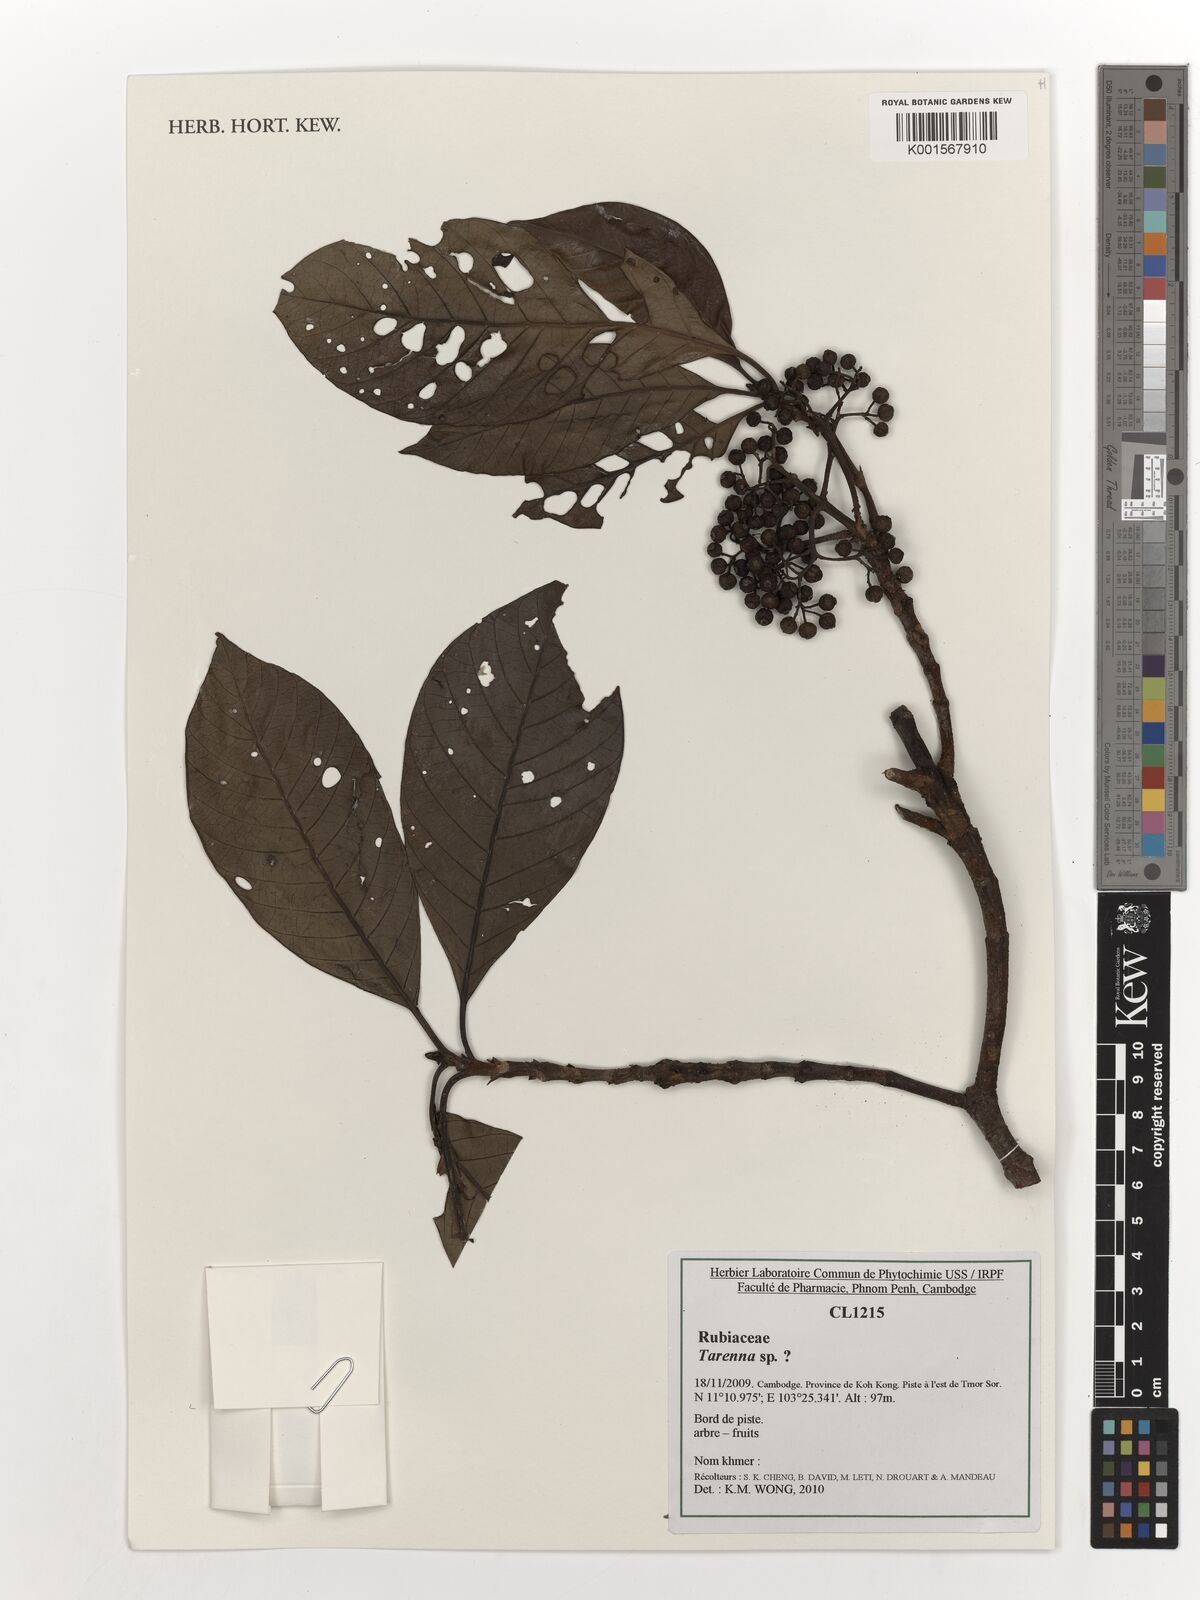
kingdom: Plantae
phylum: Tracheophyta
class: Magnoliopsida
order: Gentianales
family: Rubiaceae
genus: Tarenna
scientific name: Tarenna
